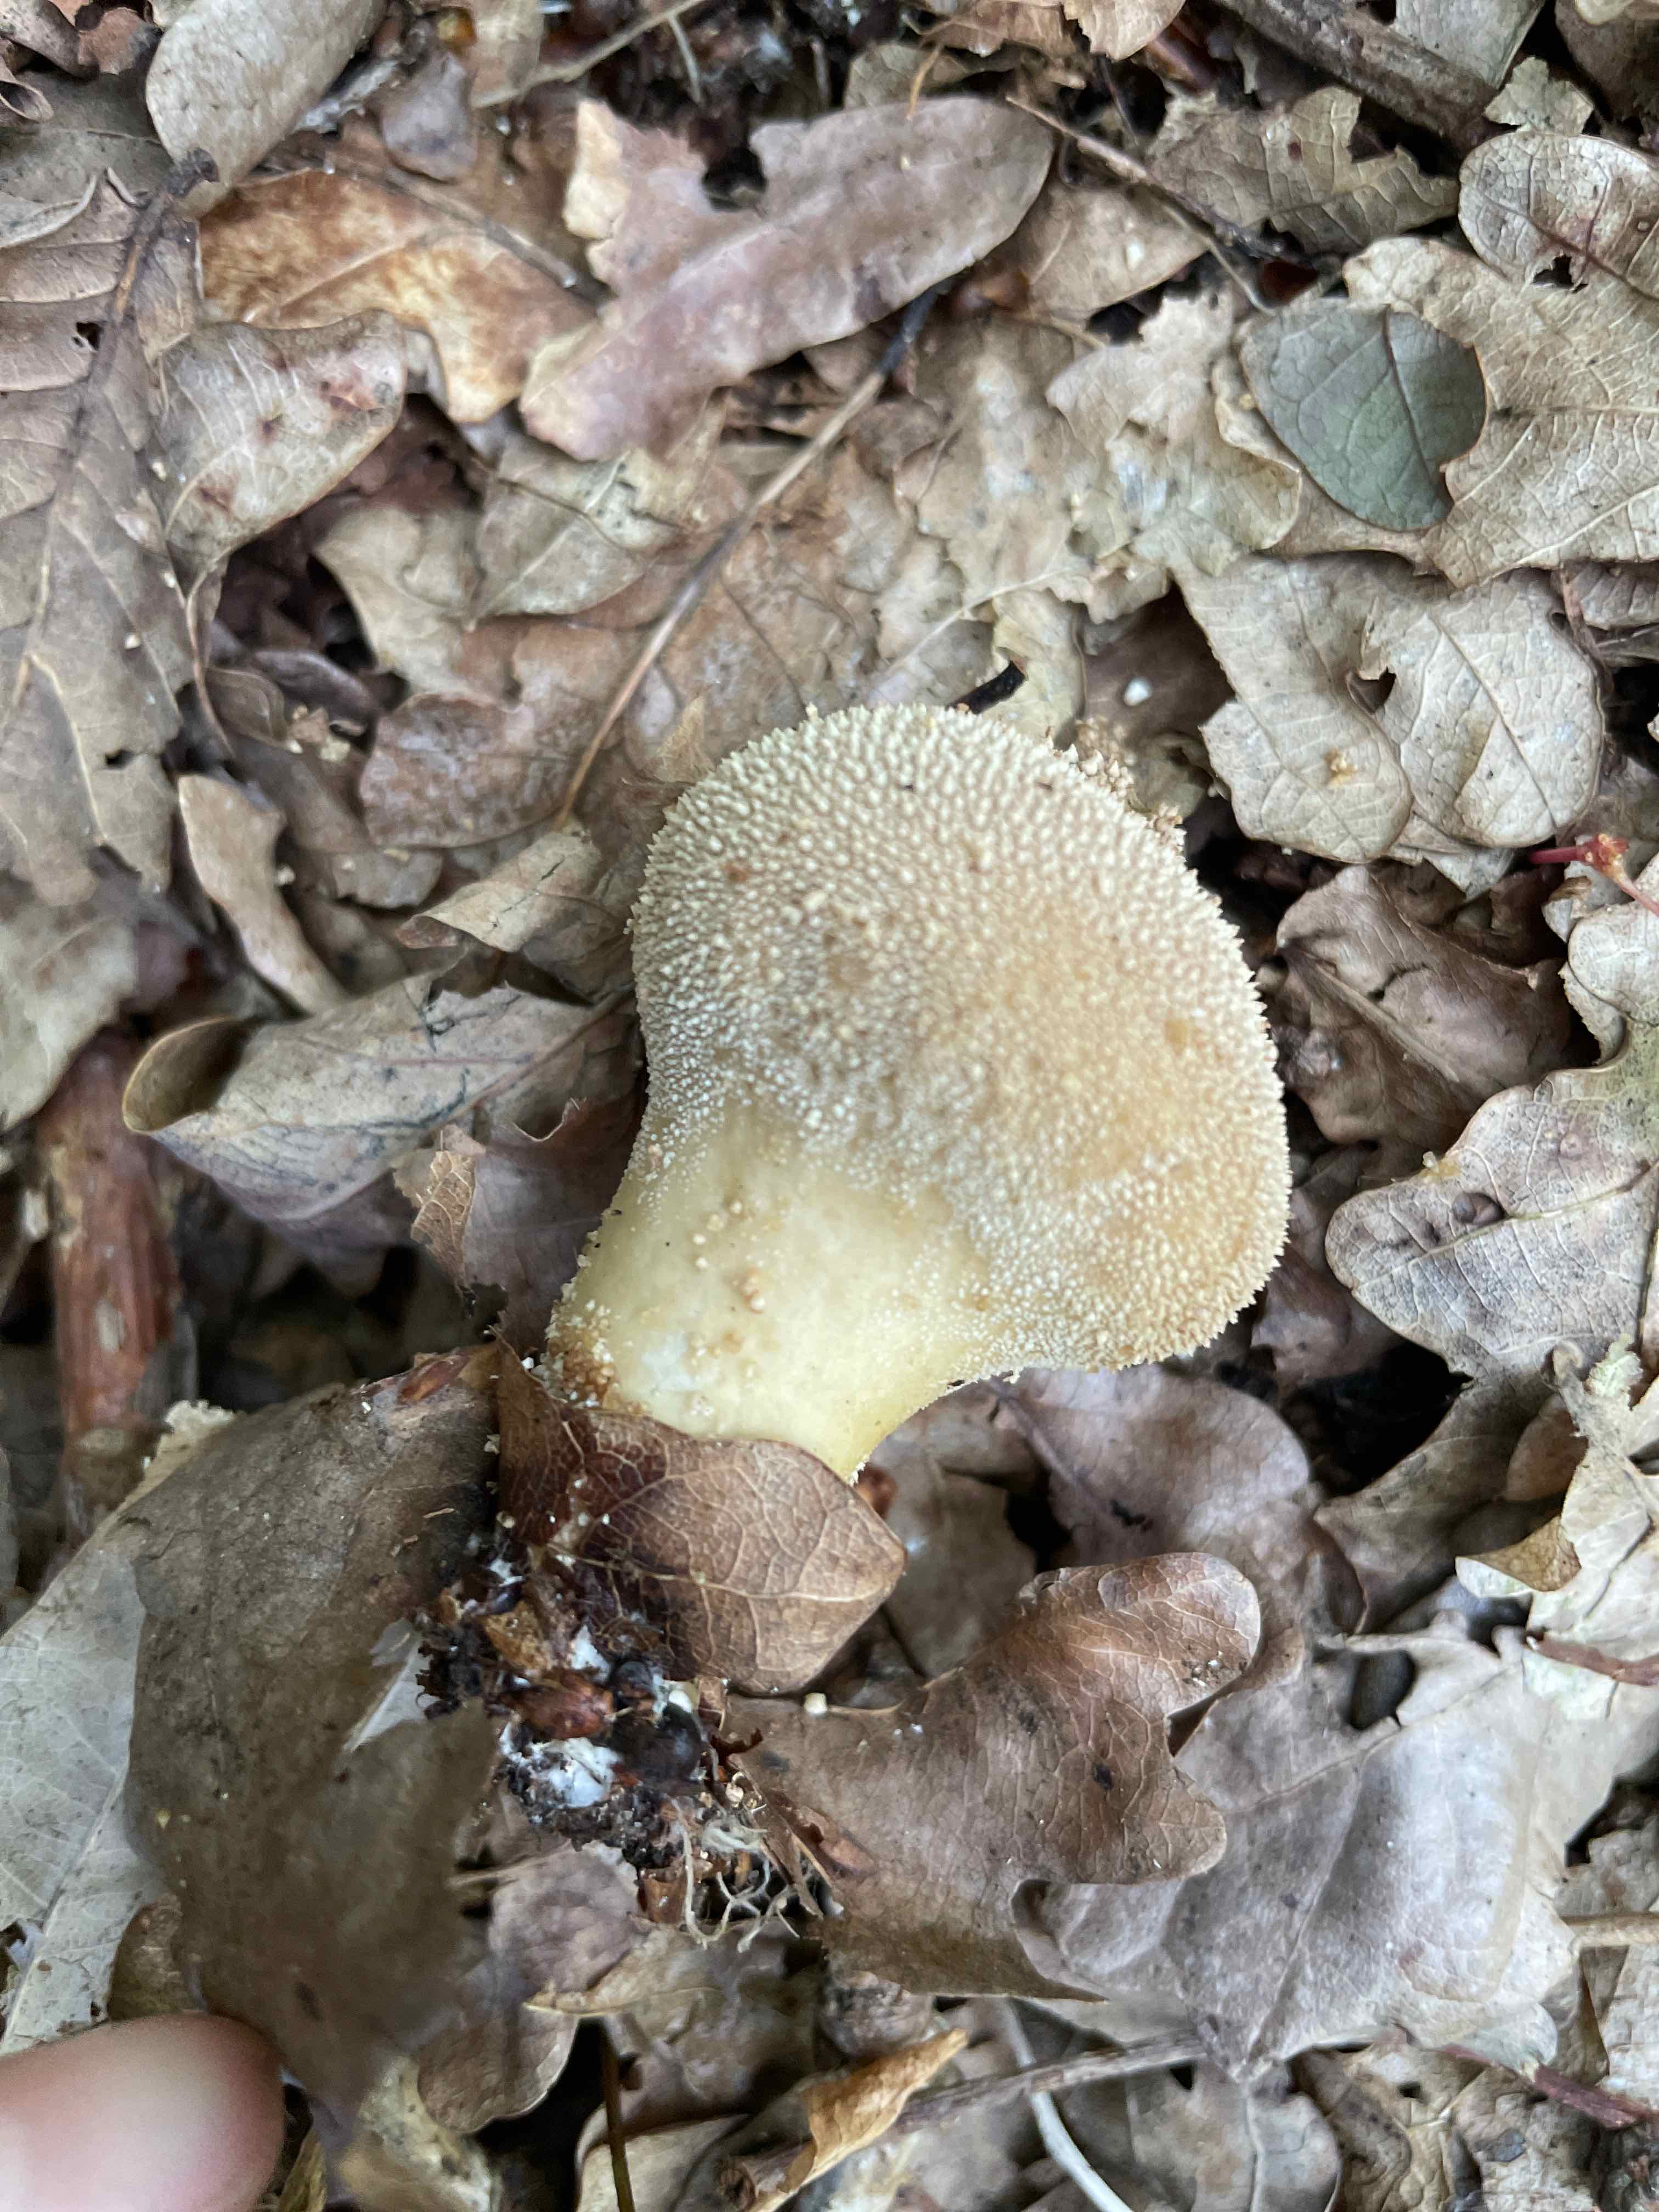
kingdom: Fungi
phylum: Basidiomycota
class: Agaricomycetes
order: Agaricales
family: Lycoperdaceae
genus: Lycoperdon
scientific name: Lycoperdon perlatum
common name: krystal-støvbold
